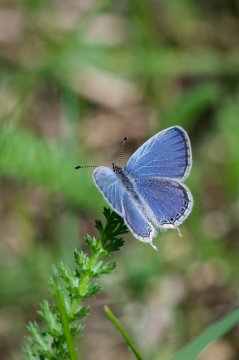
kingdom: Animalia
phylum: Arthropoda
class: Insecta
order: Lepidoptera
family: Lycaenidae
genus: Elkalyce
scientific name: Elkalyce comyntas
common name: Eastern Tailed-Blue
